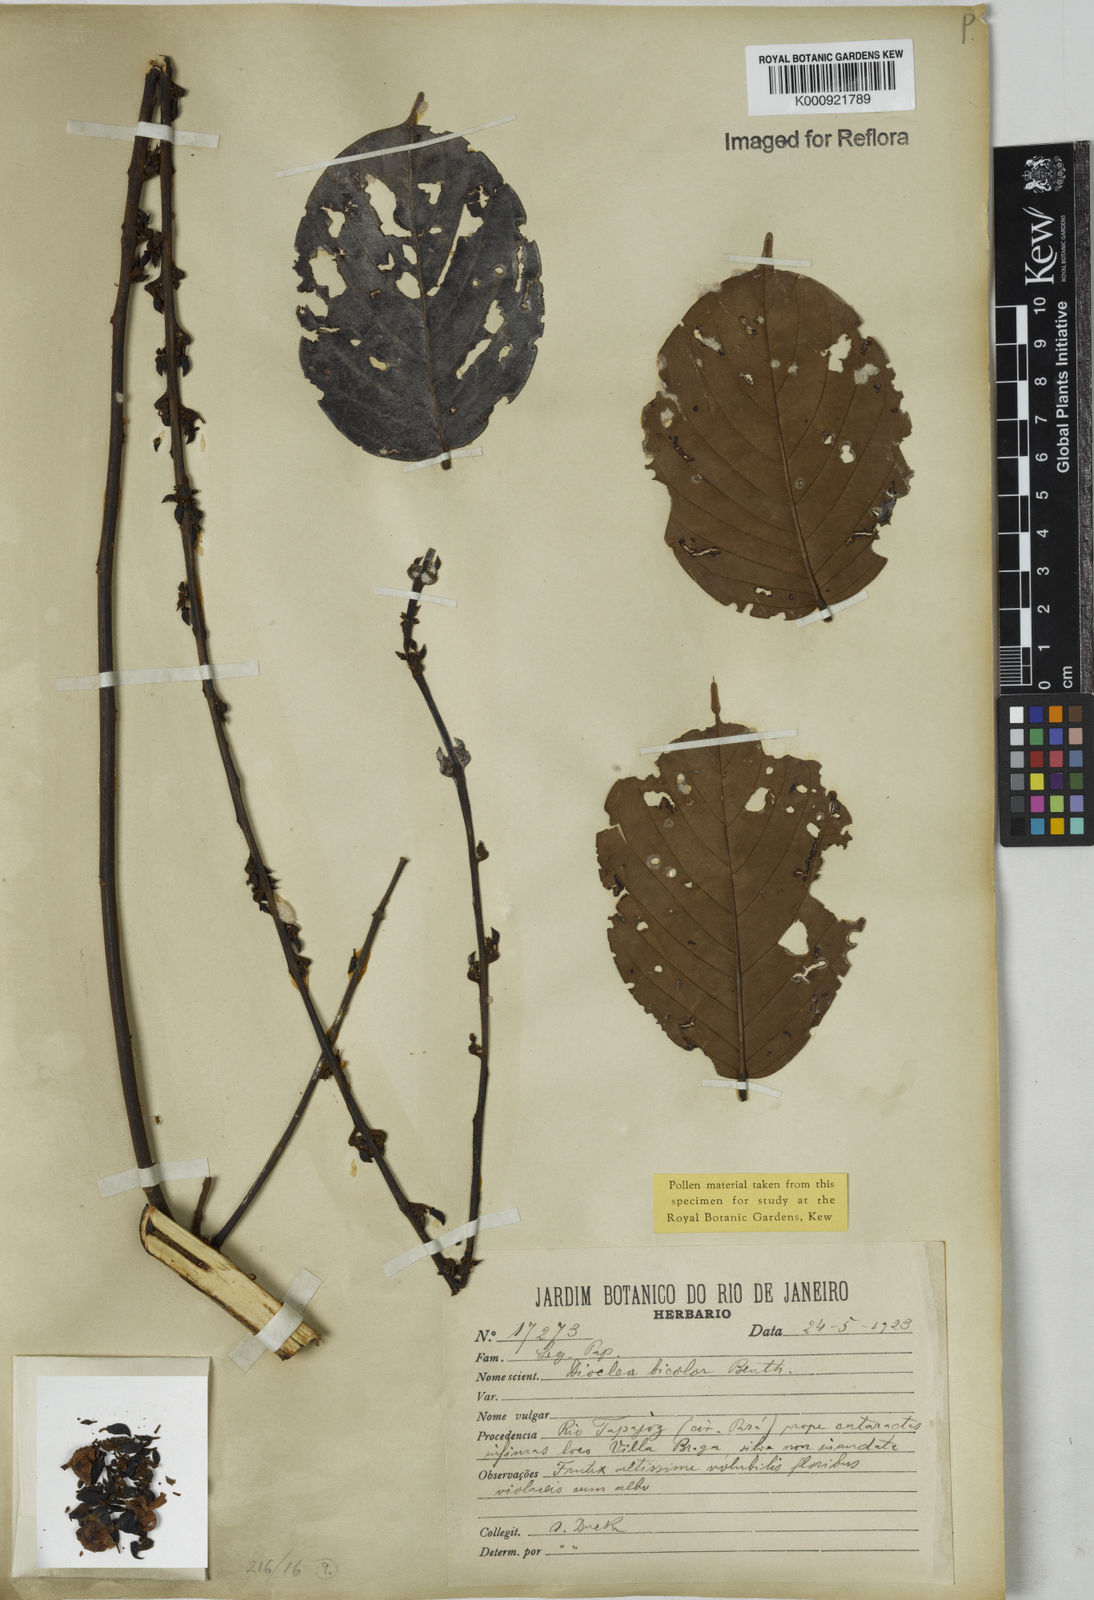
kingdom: Plantae
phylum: Tracheophyta
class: Magnoliopsida
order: Fabales
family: Fabaceae
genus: Macropsychanthus
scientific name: Macropsychanthus bicolor
